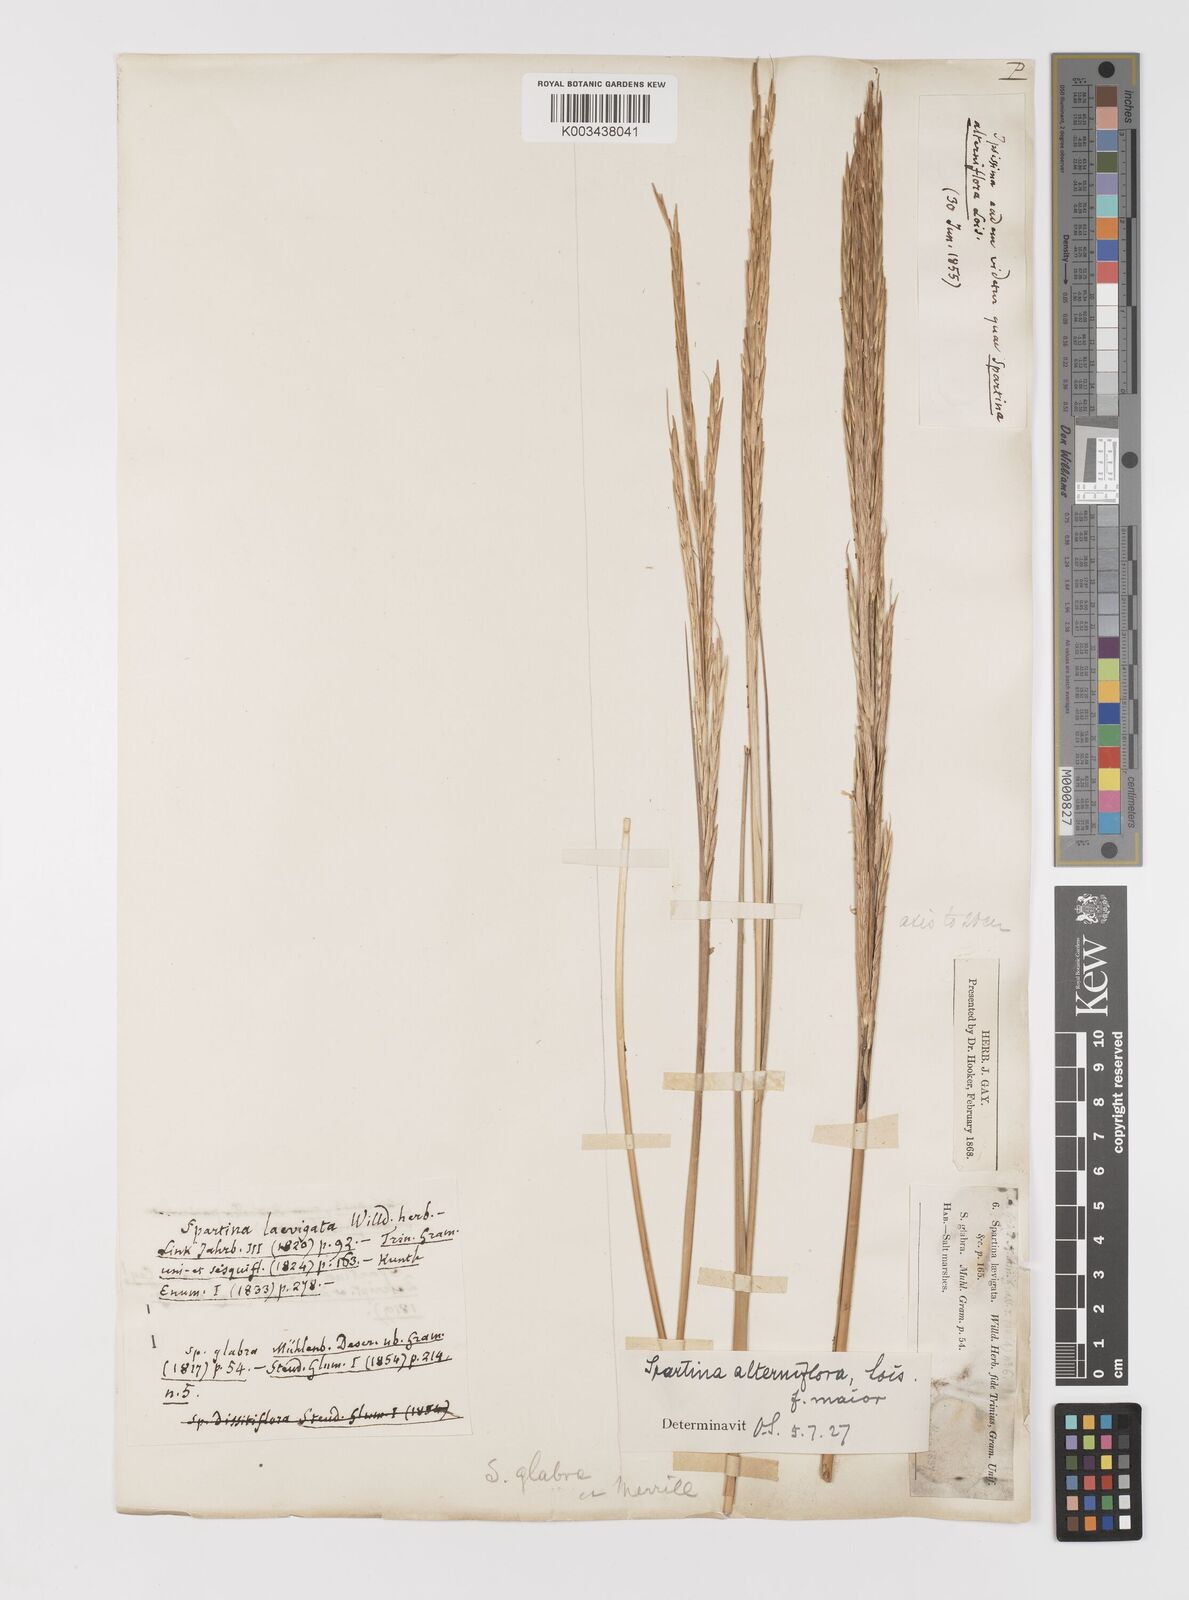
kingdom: Plantae
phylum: Tracheophyta
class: Liliopsida
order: Poales
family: Poaceae
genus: Sporobolus
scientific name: Sporobolus alterniflorus
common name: Atlantic cordgrass
